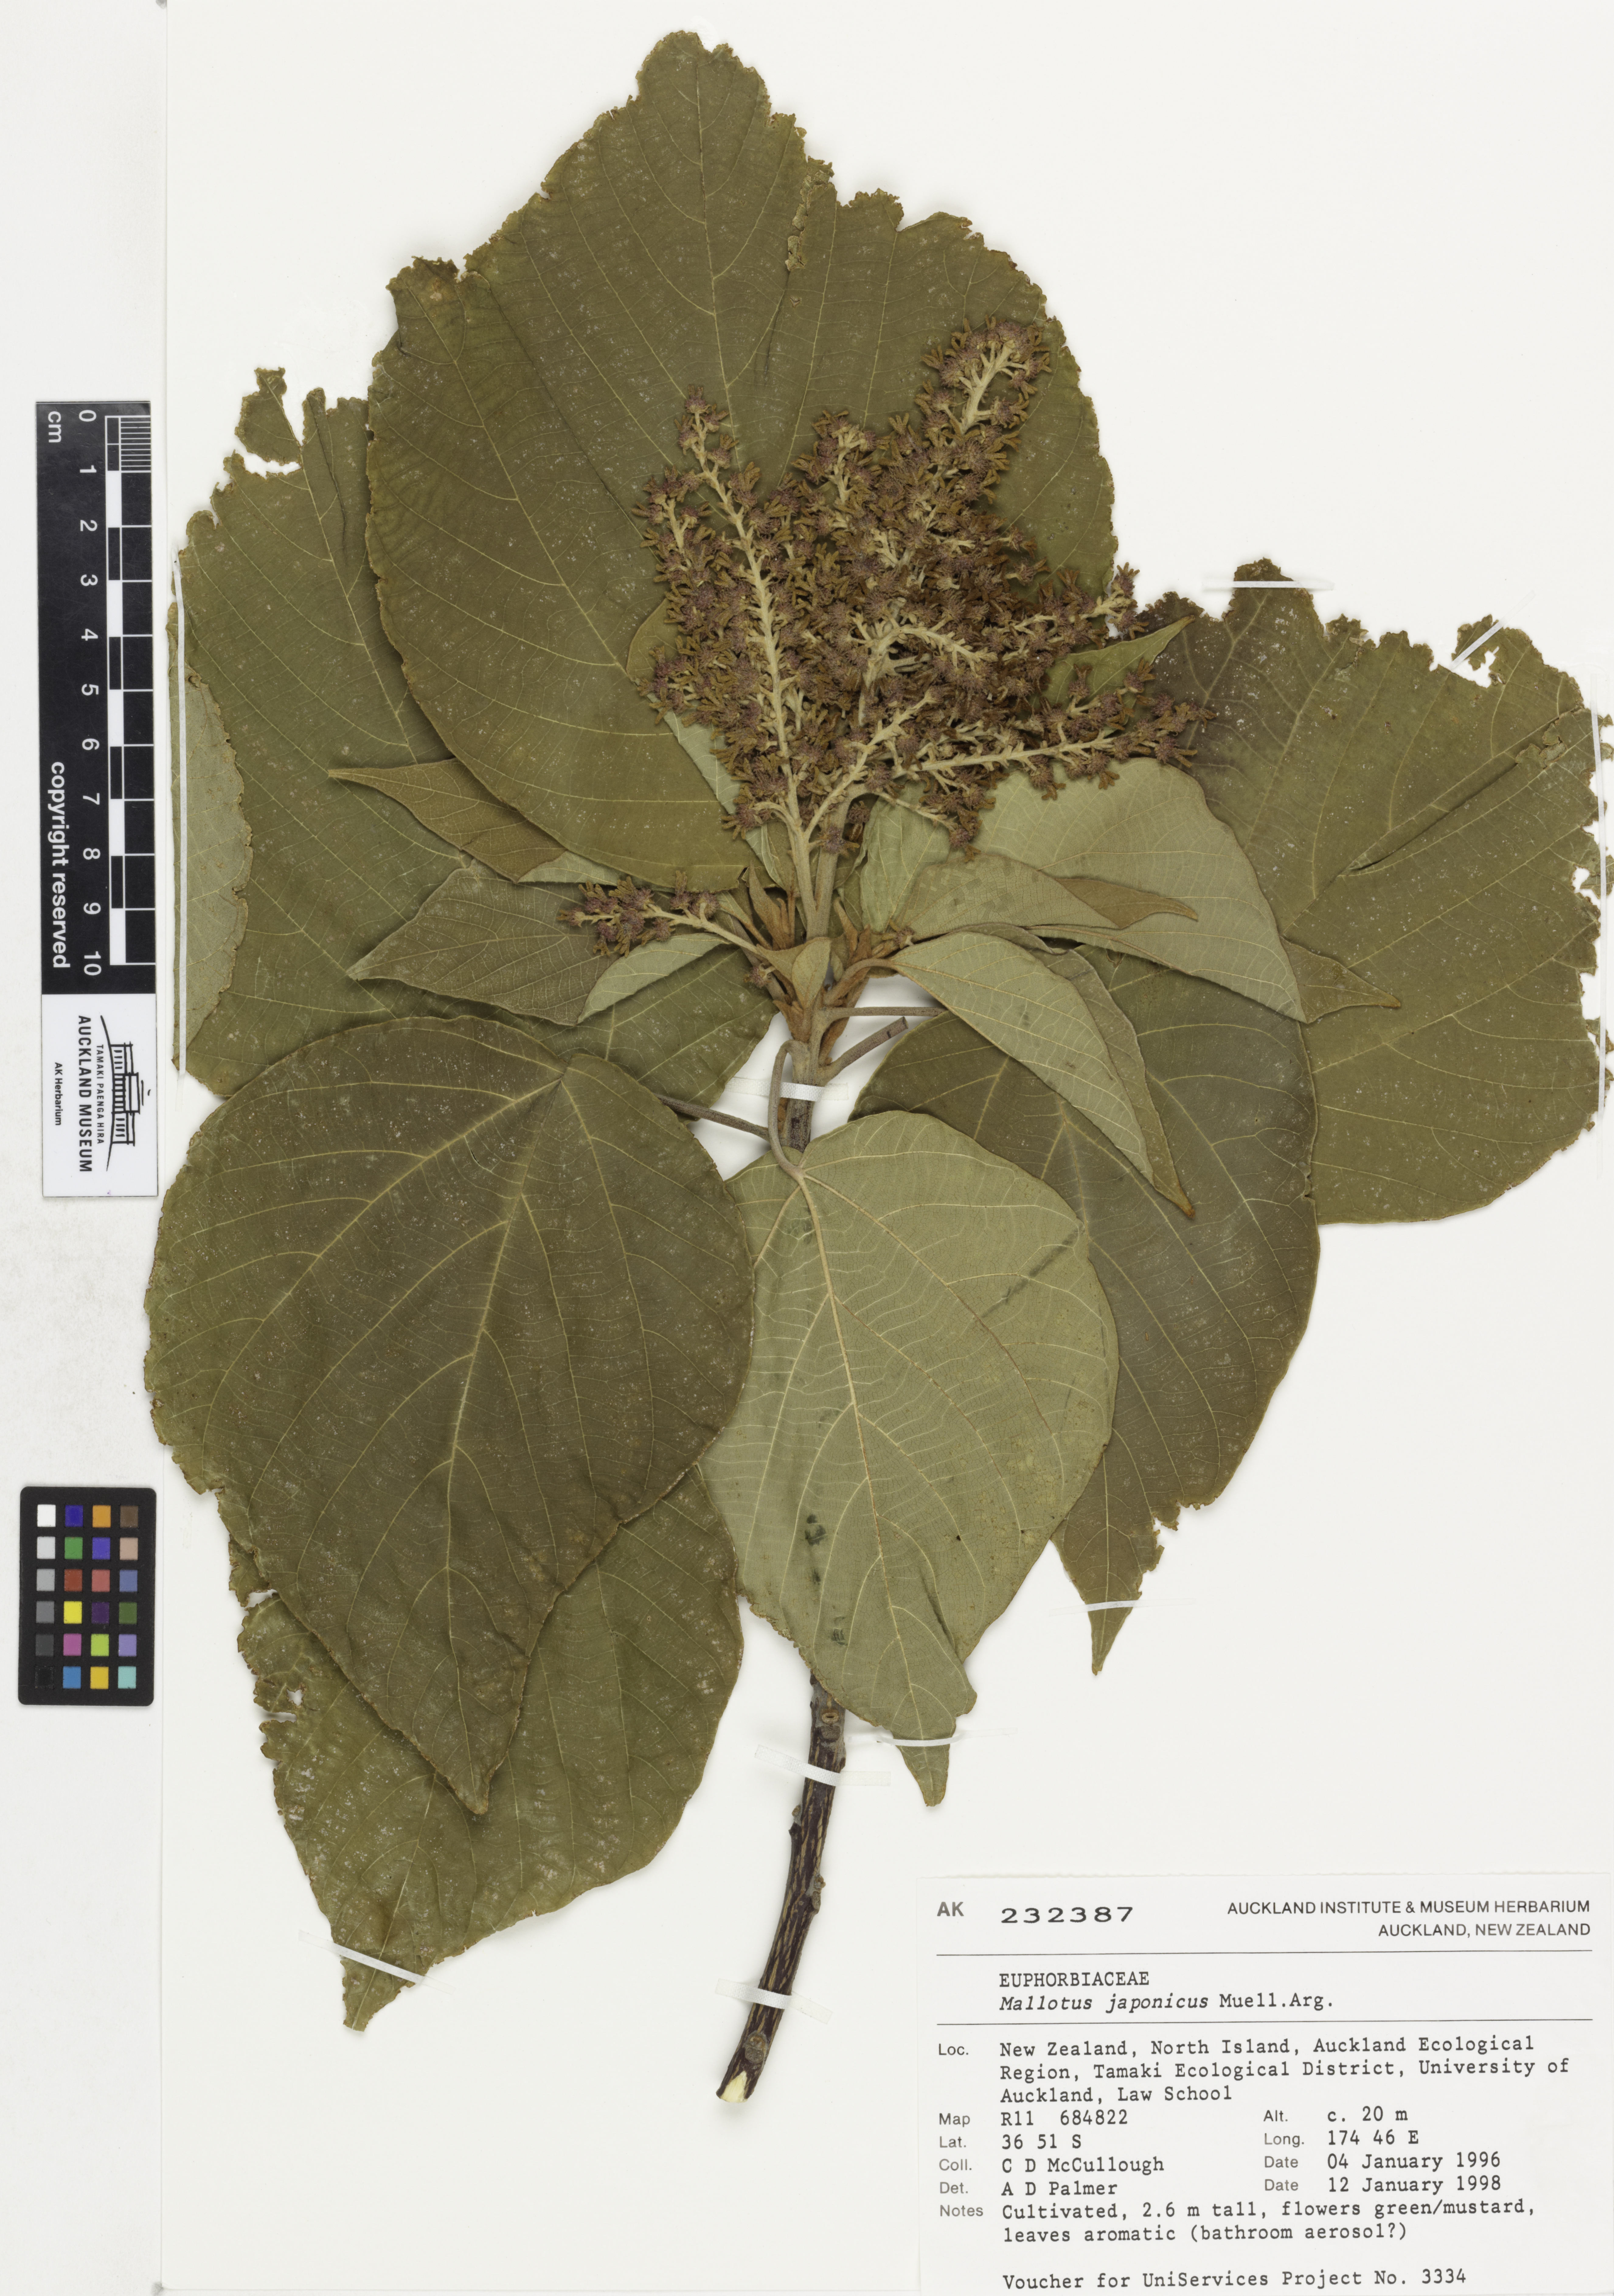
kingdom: Plantae
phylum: Tracheophyta
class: Magnoliopsida
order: Malpighiales
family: Euphorbiaceae
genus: Mallotus
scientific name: Mallotus japonicus
